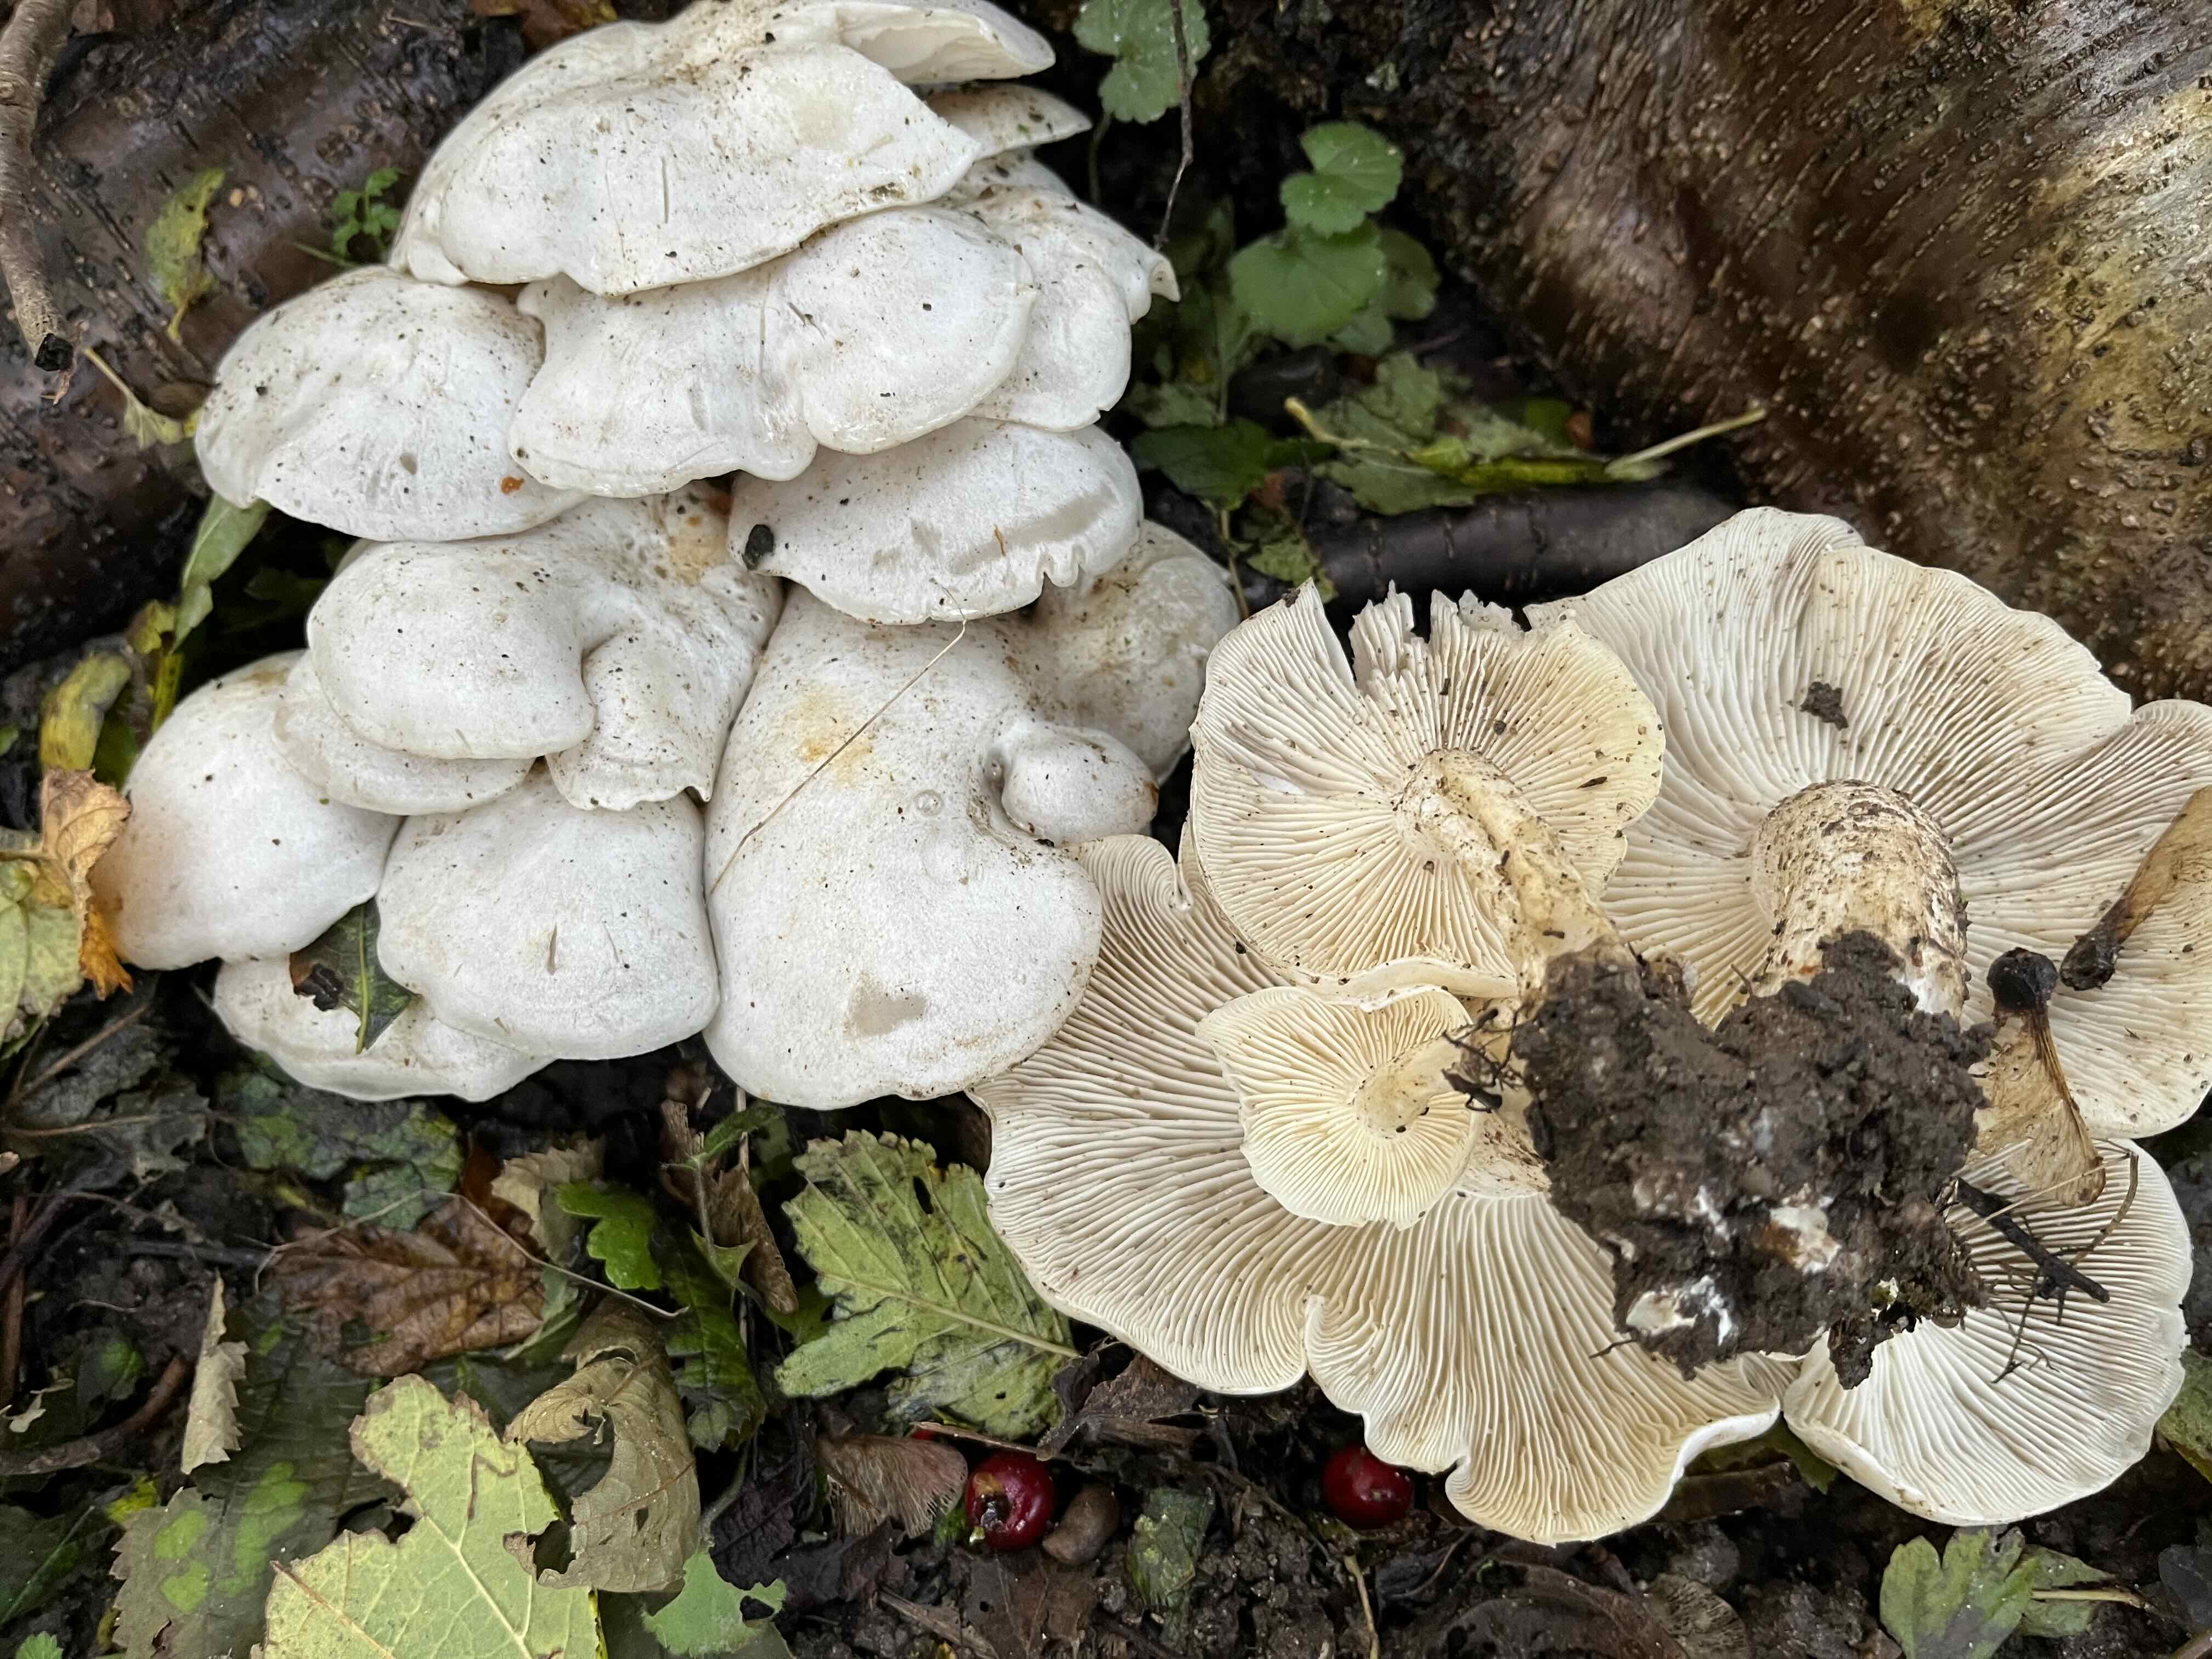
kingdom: Fungi
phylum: Basidiomycota
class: Agaricomycetes
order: Agaricales
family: Tricholomataceae
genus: Leucocybe
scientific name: Leucocybe connata
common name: knippe-tragthat
